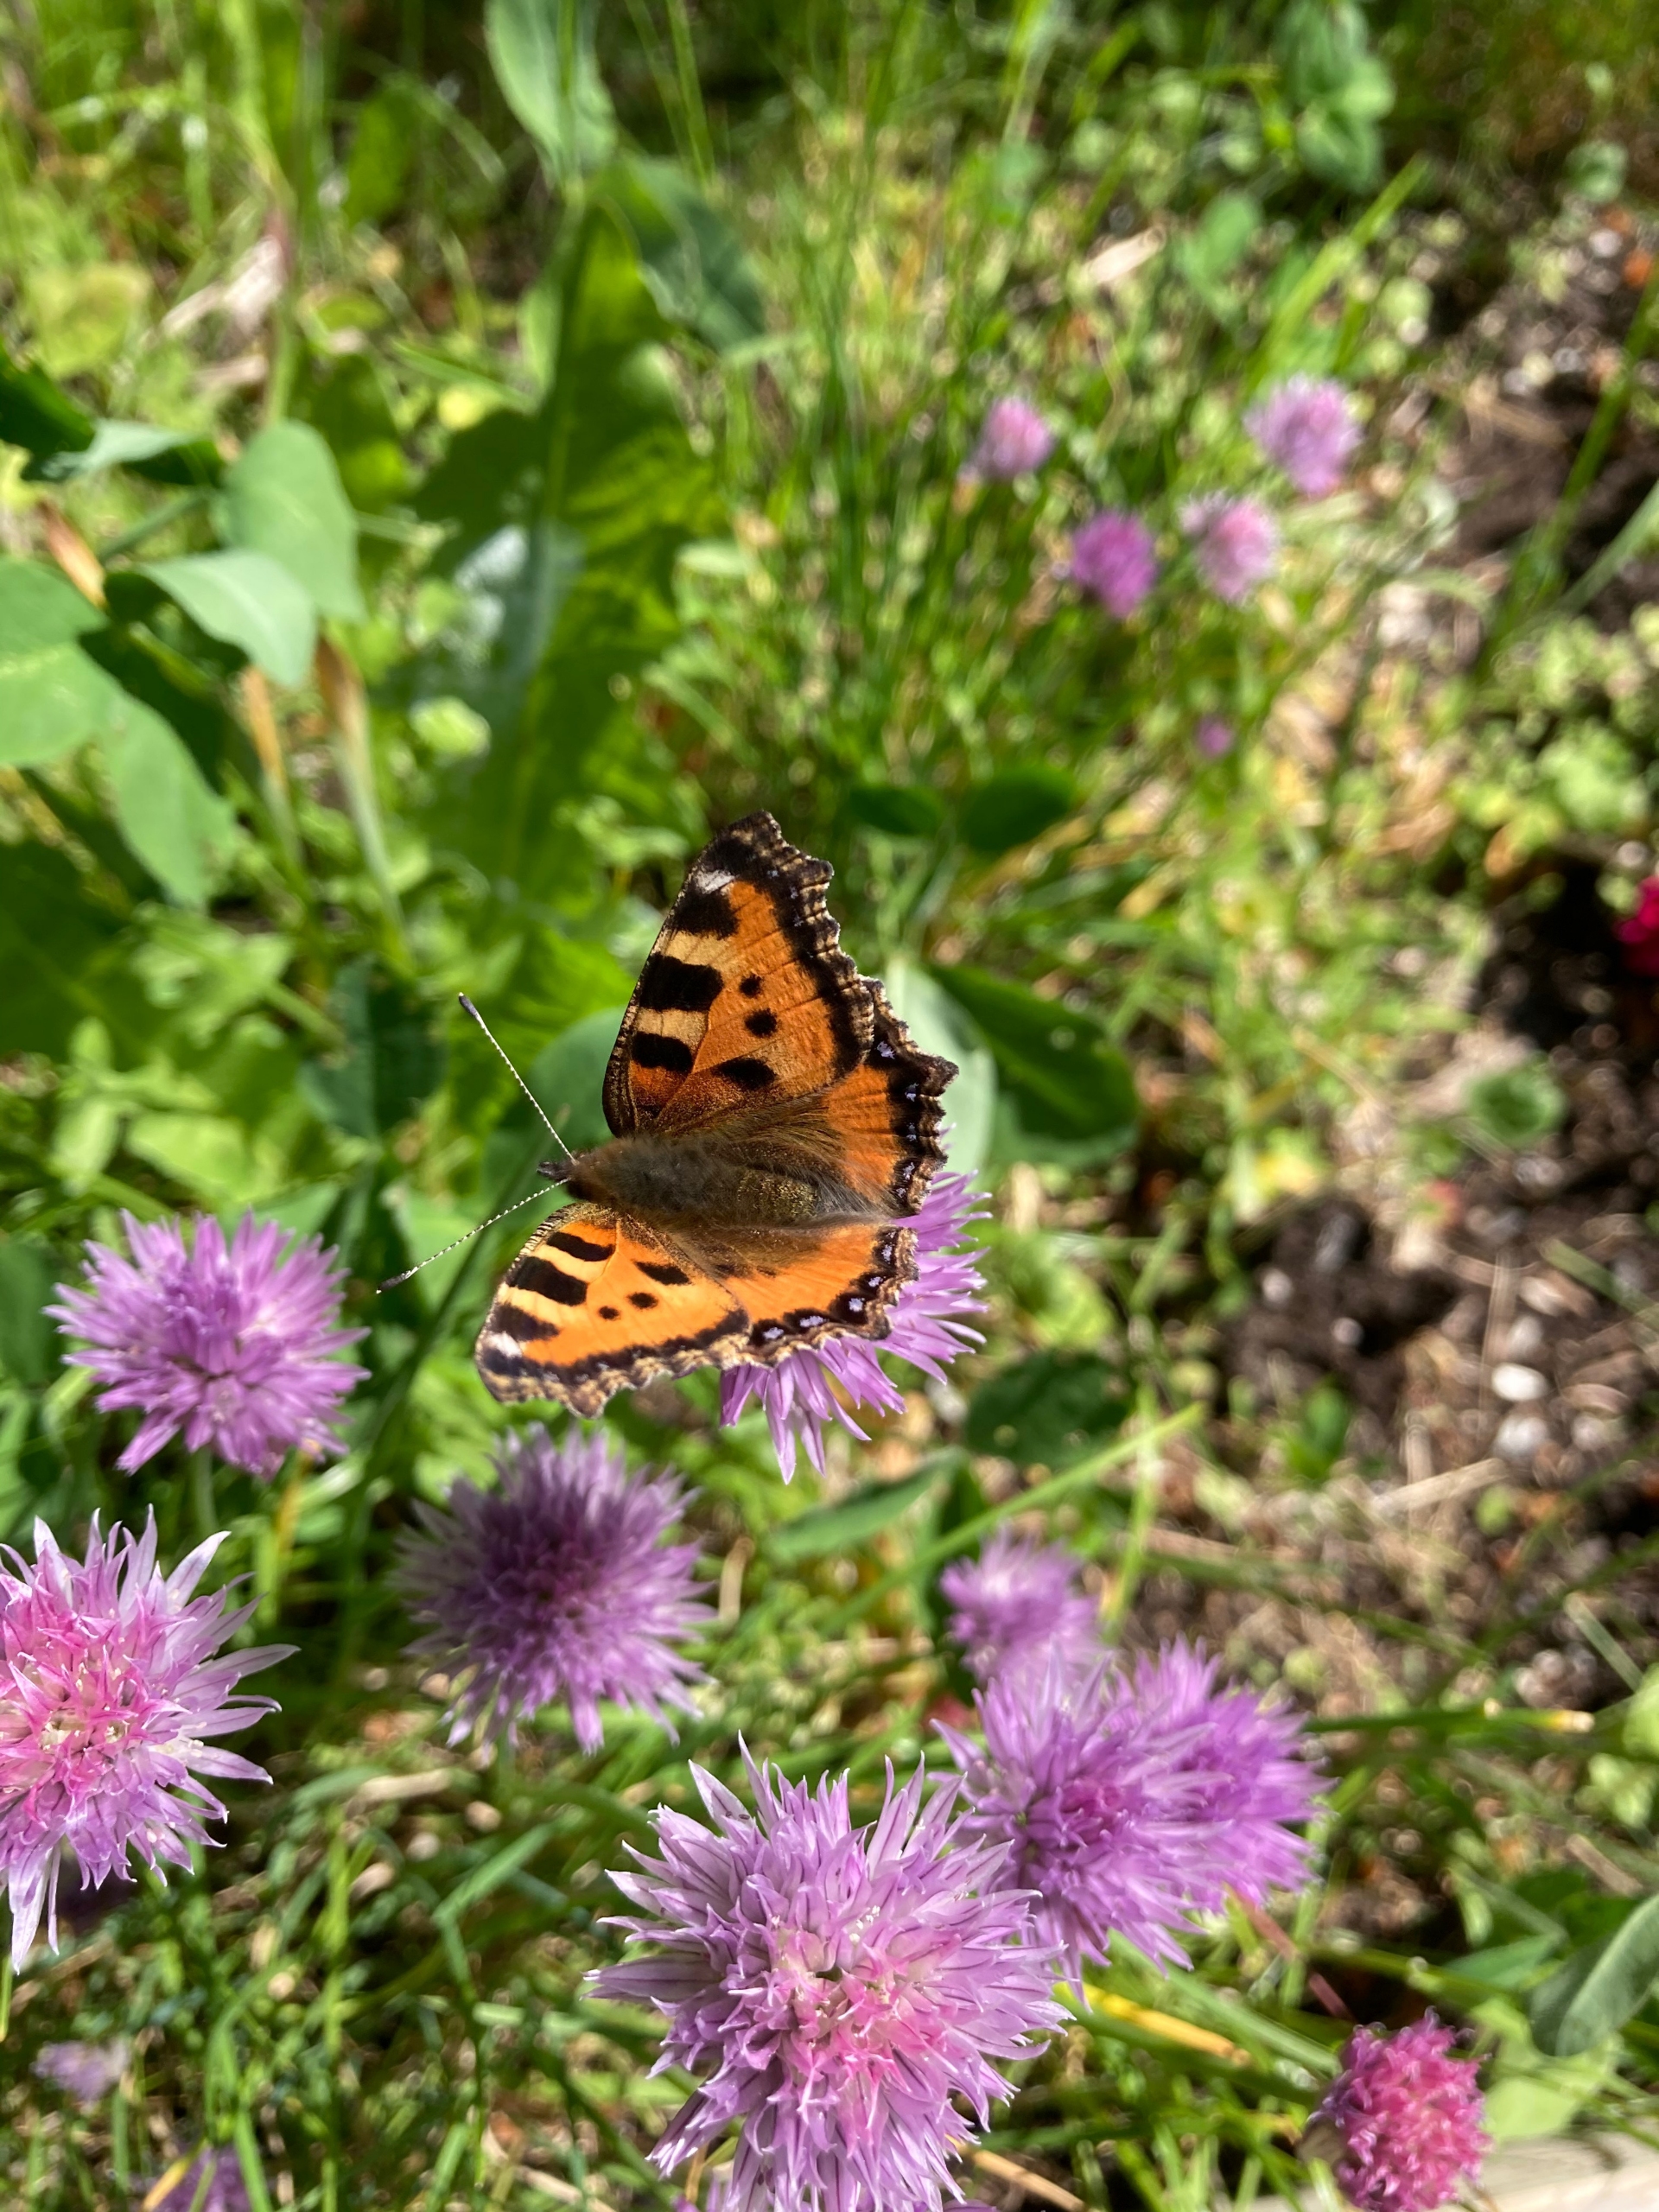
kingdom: Animalia
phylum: Arthropoda
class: Insecta
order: Lepidoptera
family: Nymphalidae
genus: Aglais
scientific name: Aglais urticae
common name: Nældens takvinge
